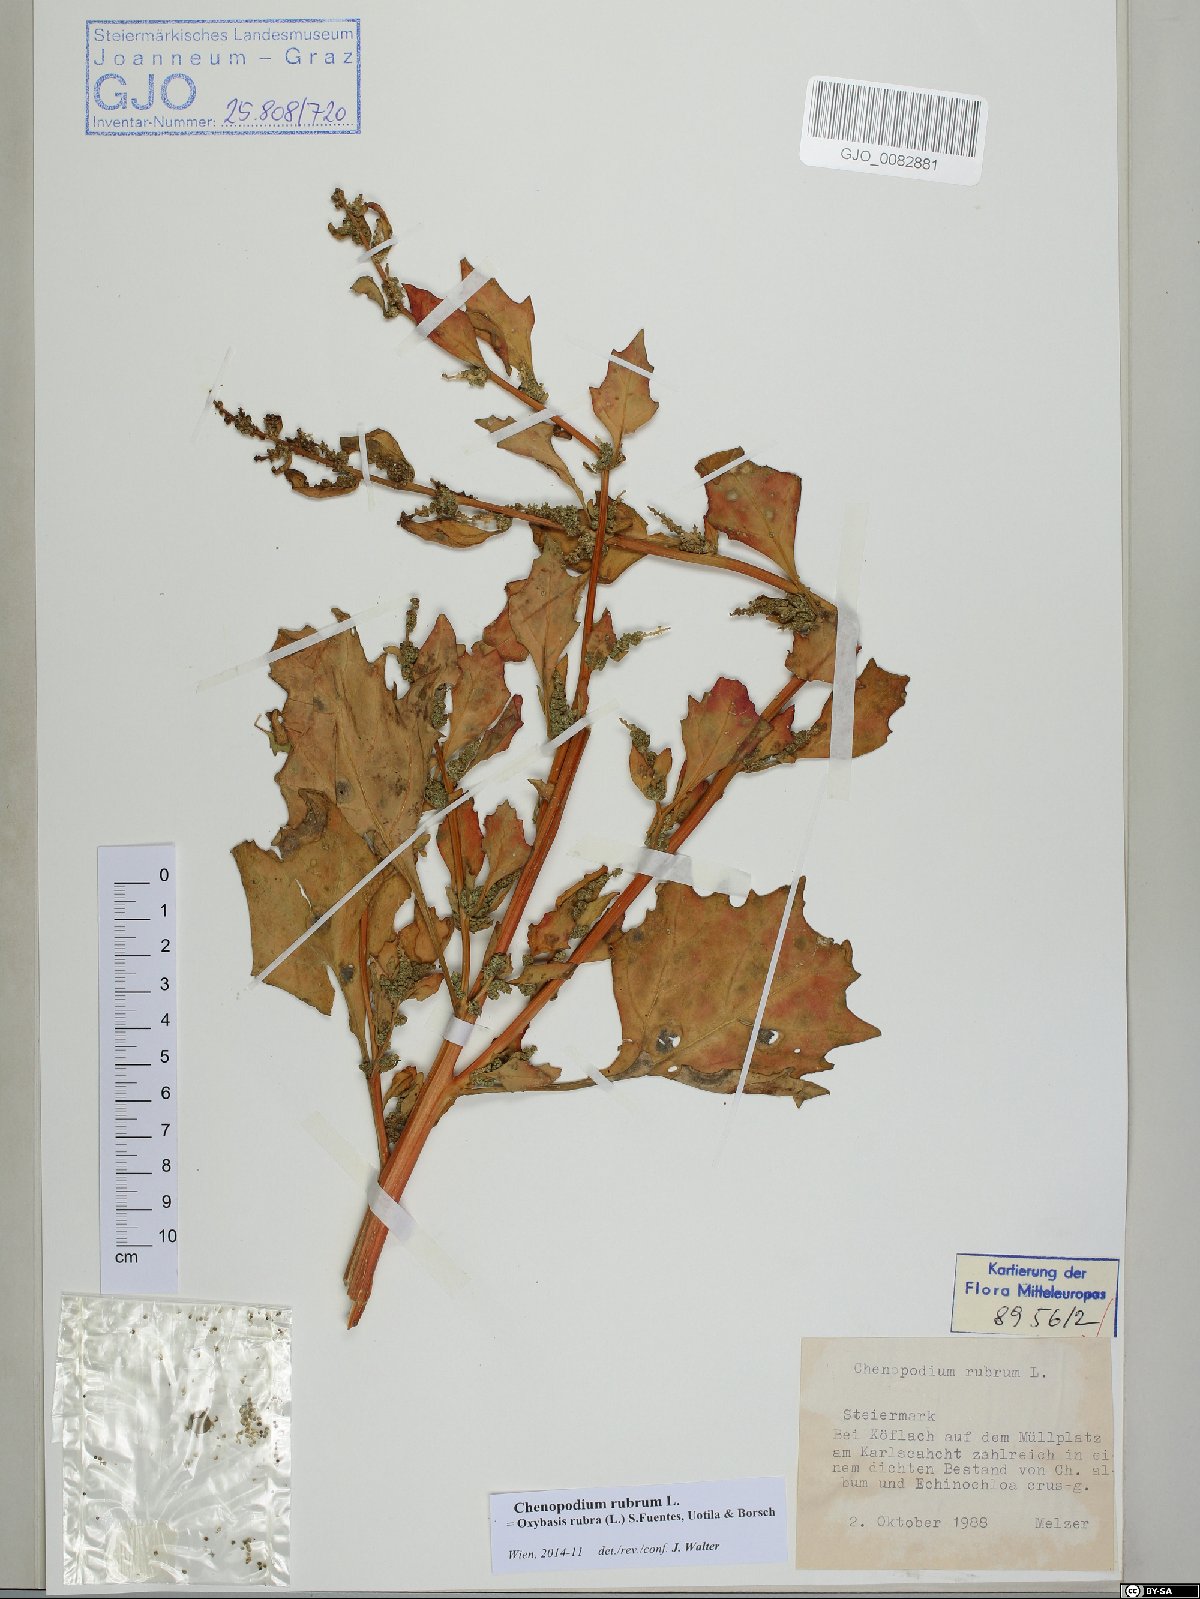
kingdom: Plantae
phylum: Tracheophyta
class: Magnoliopsida
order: Caryophyllales
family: Amaranthaceae
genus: Oxybasis
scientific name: Oxybasis rubra
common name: Red goosefoot
